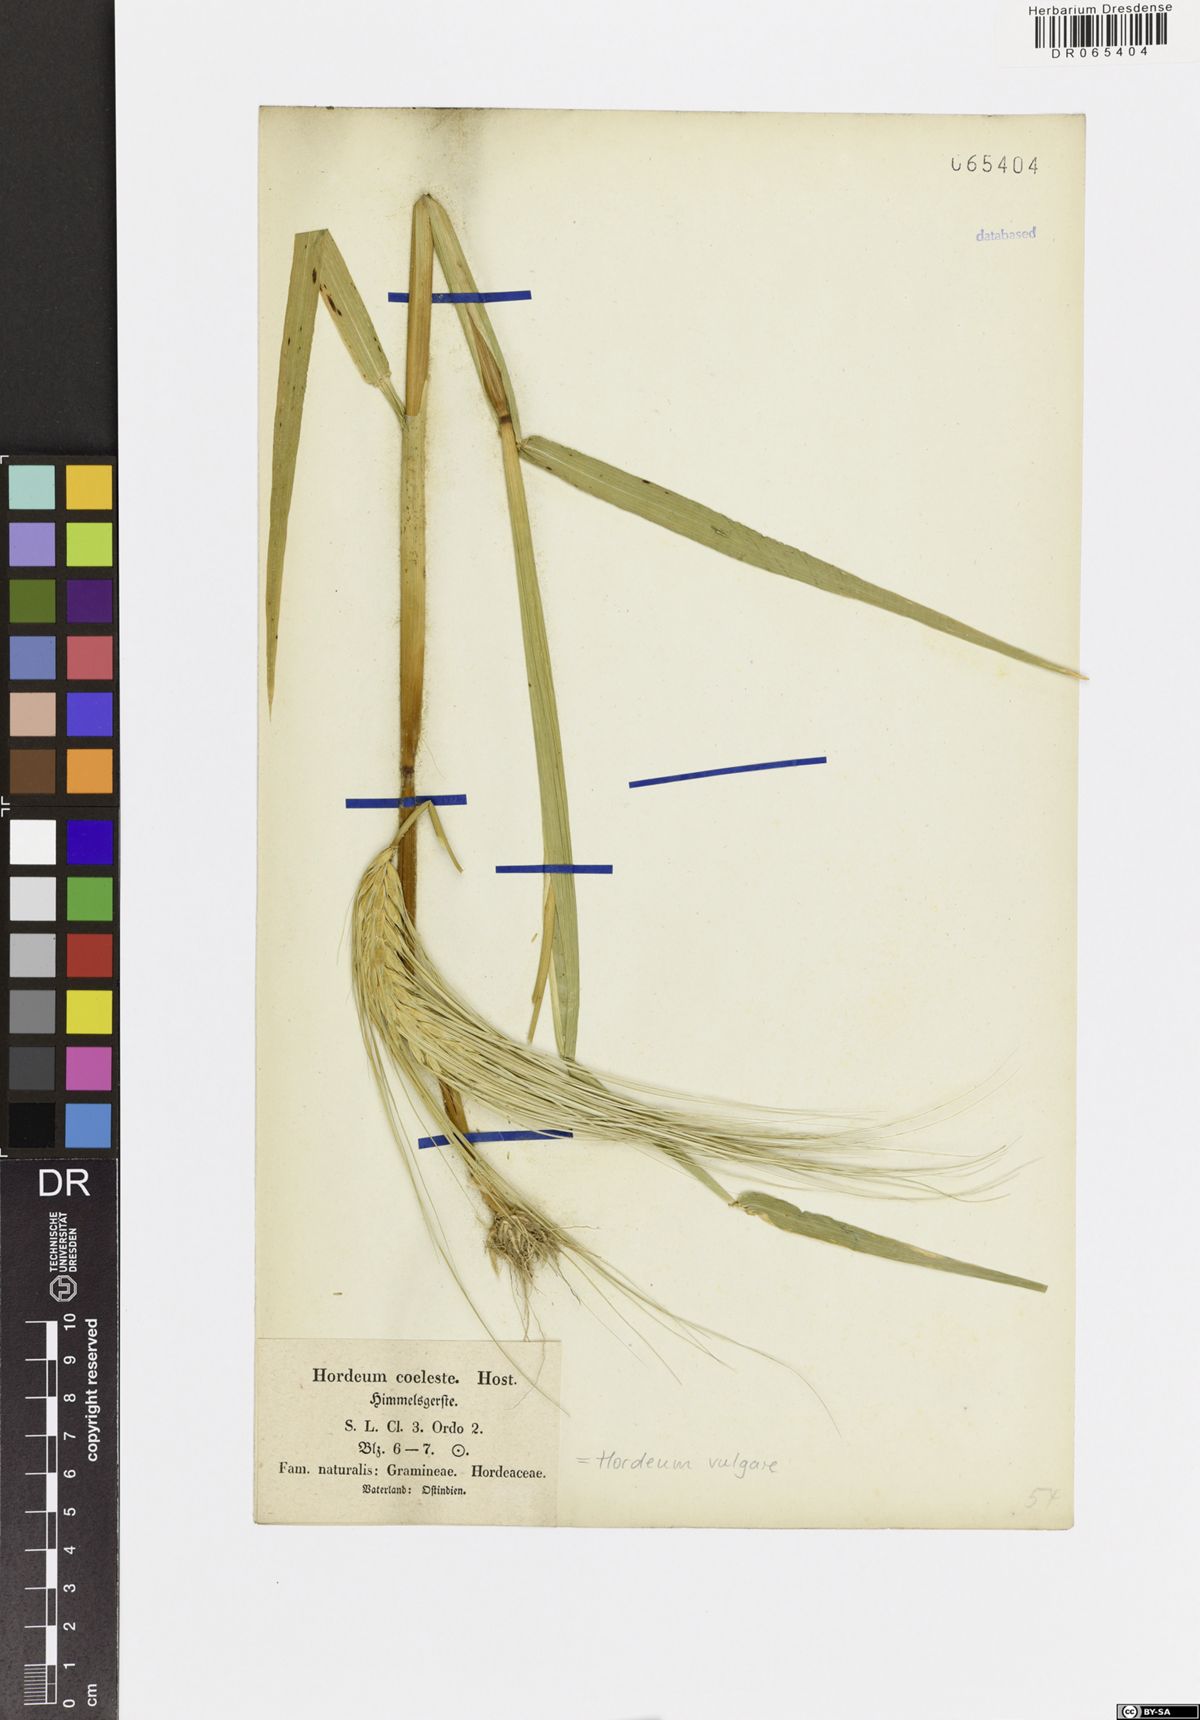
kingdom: Plantae
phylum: Tracheophyta
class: Liliopsida
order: Poales
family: Poaceae
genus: Hordeum
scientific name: Hordeum vulgare
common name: Common barley
